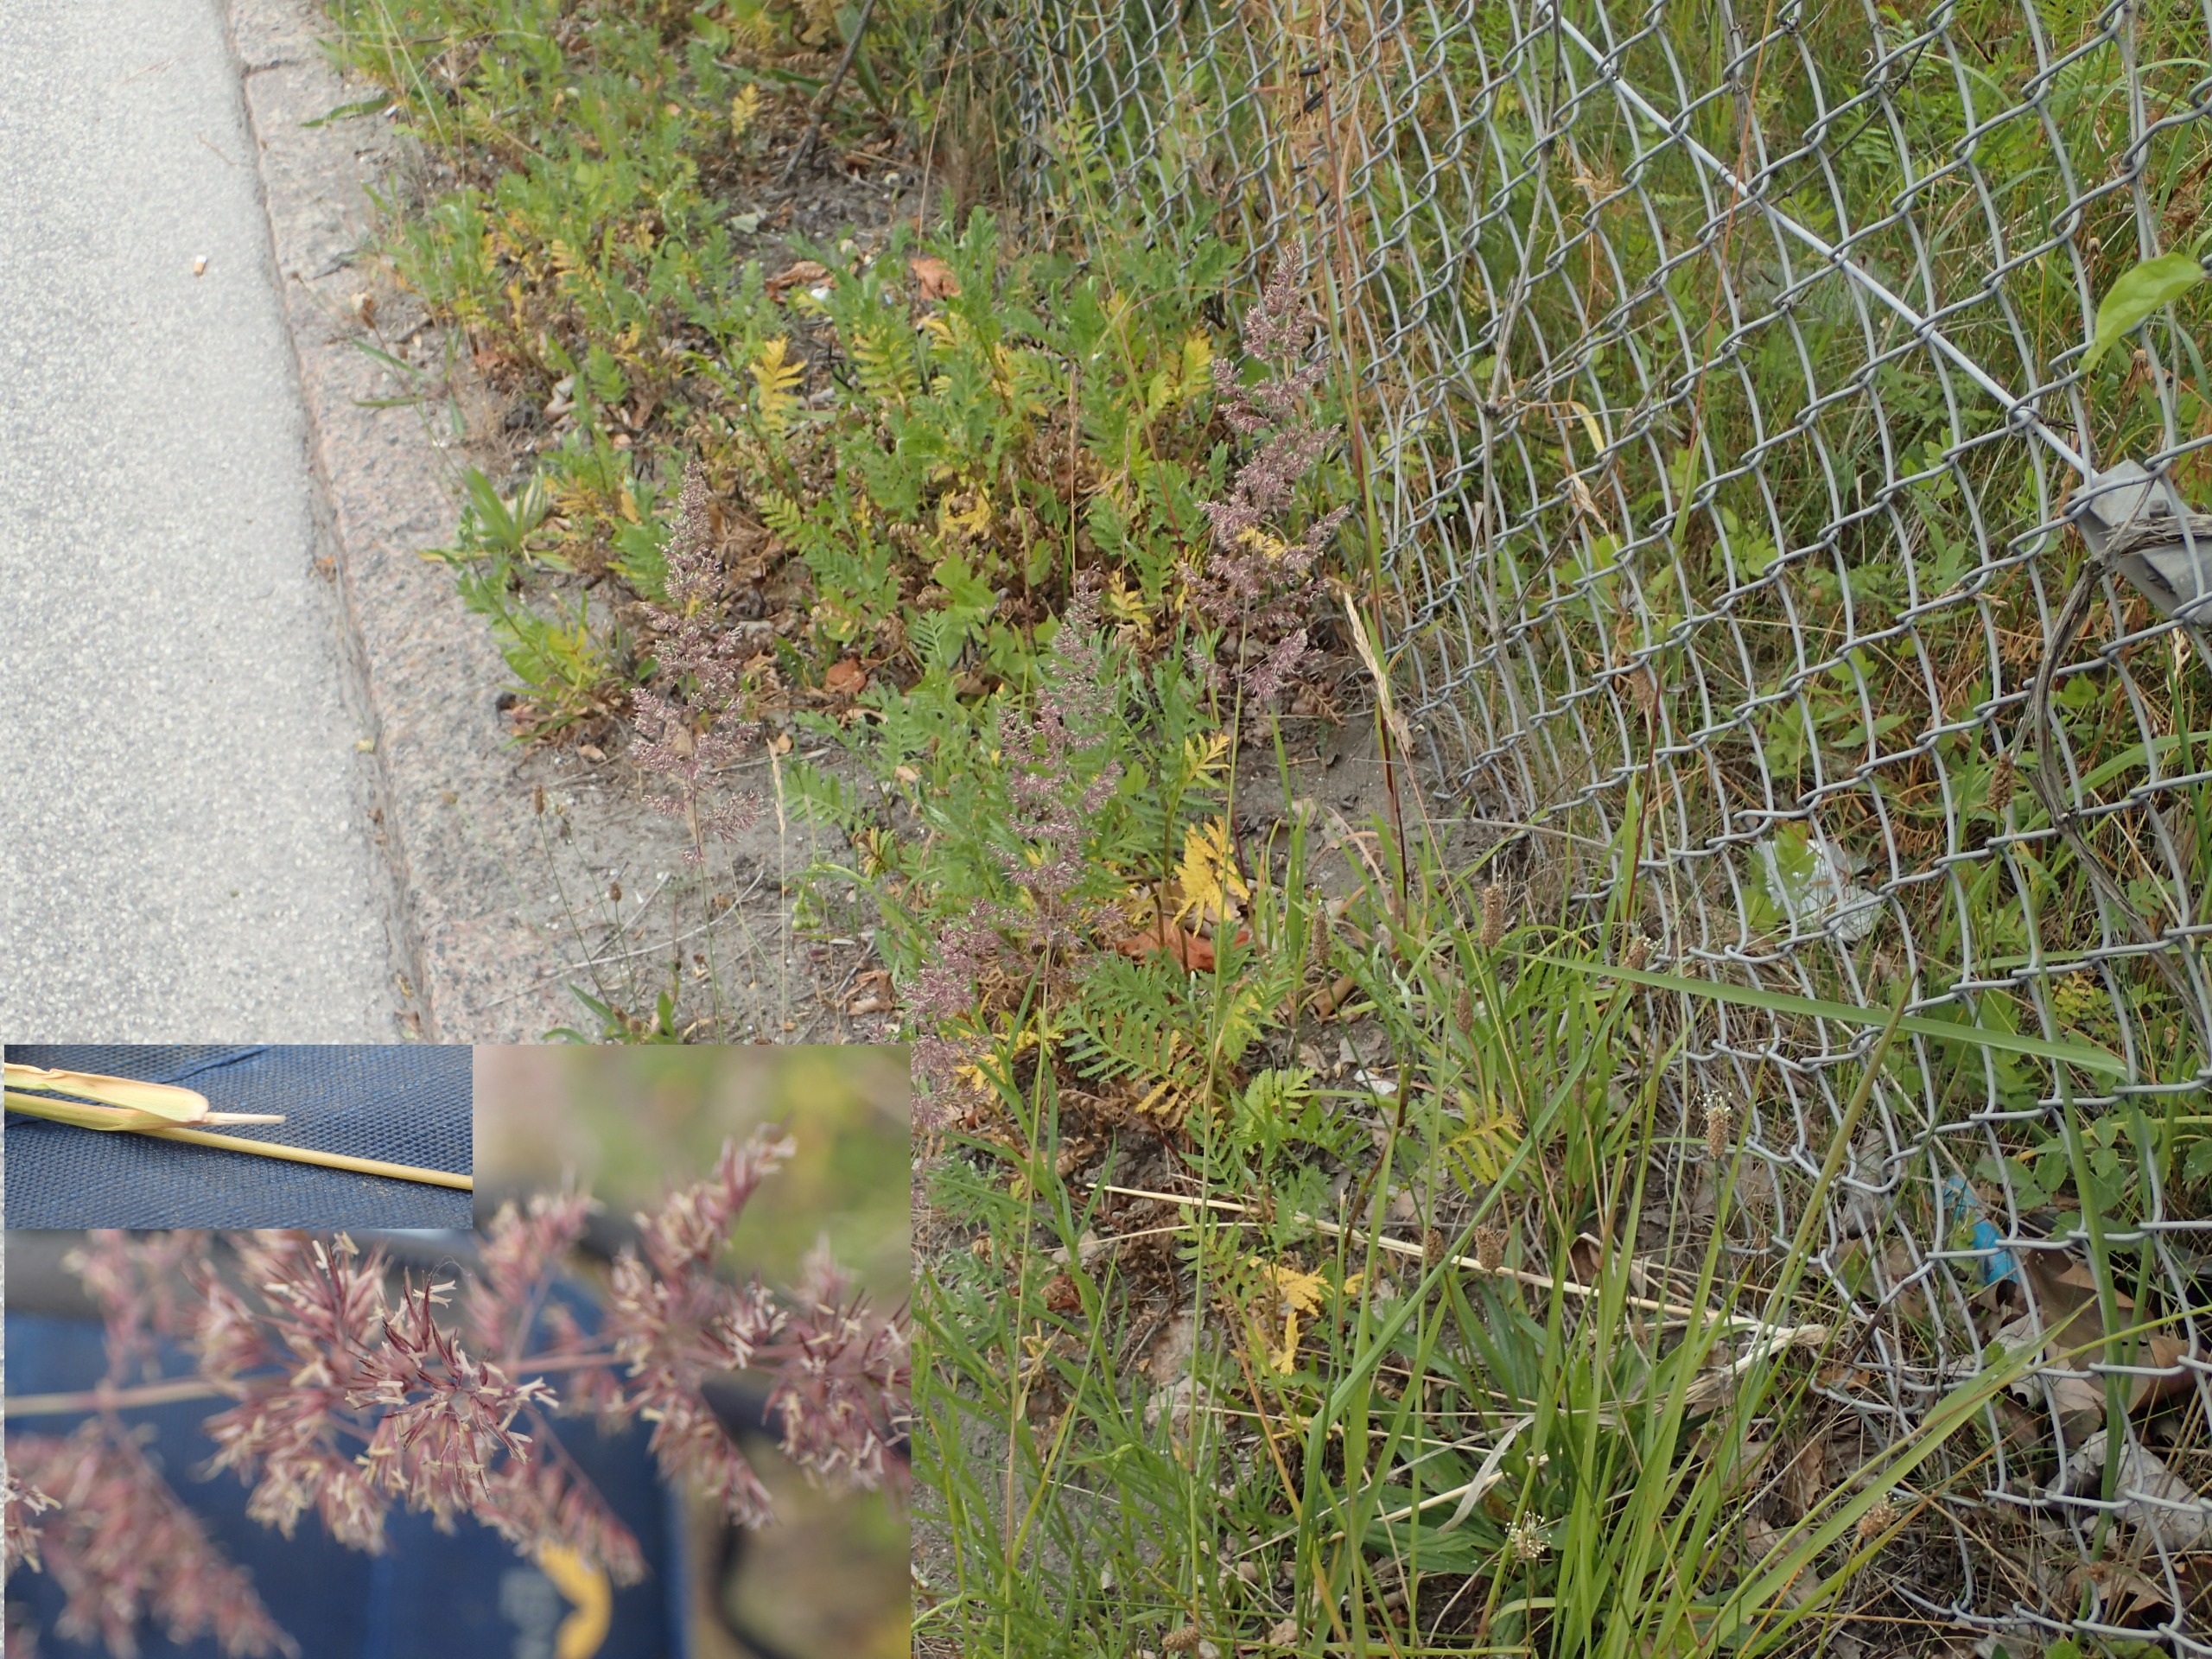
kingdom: Plantae
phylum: Tracheophyta
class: Liliopsida
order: Poales
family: Poaceae
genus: Calamagrostis
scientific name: Calamagrostis epigejos
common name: Bjerg-rørhvene
